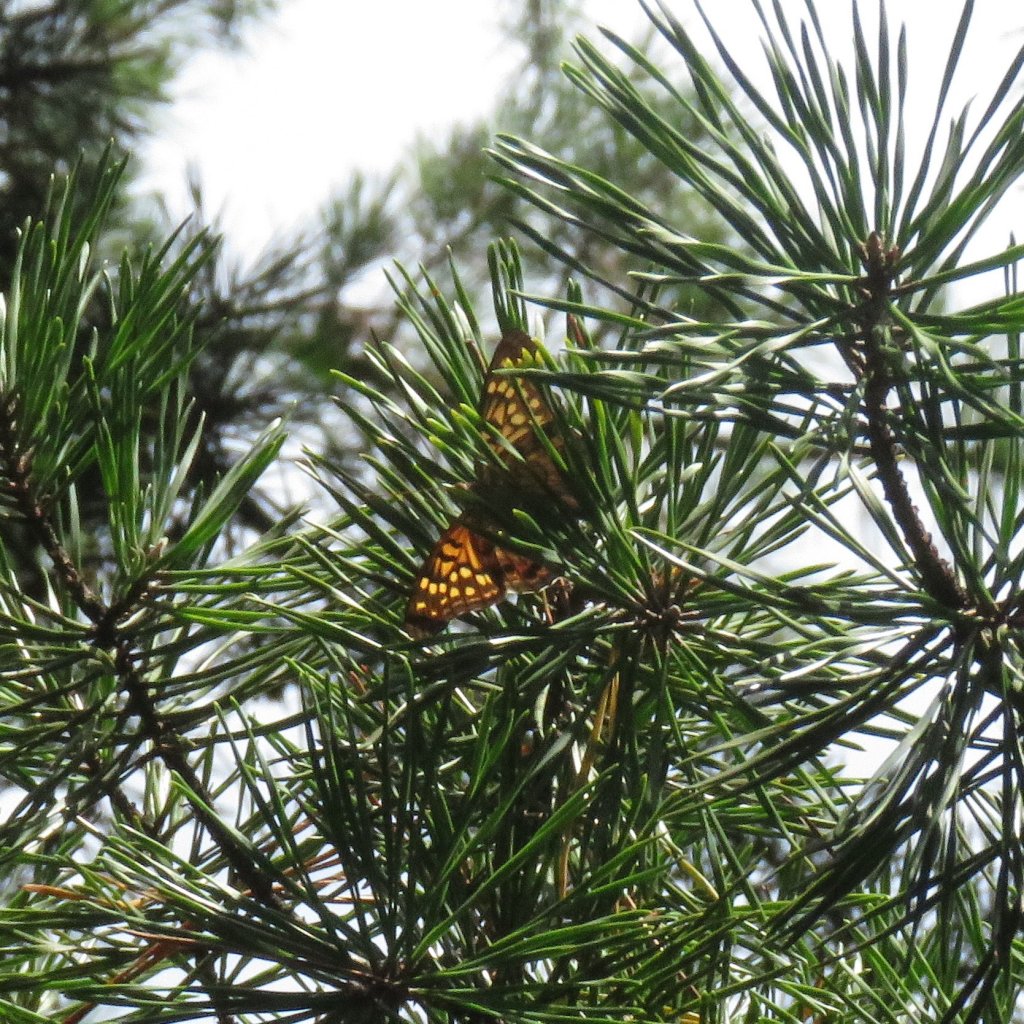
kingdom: Animalia
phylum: Arthropoda
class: Insecta
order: Lepidoptera
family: Nymphalidae
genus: Asterocampa
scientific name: Asterocampa clyton
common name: Tawny Emperor
